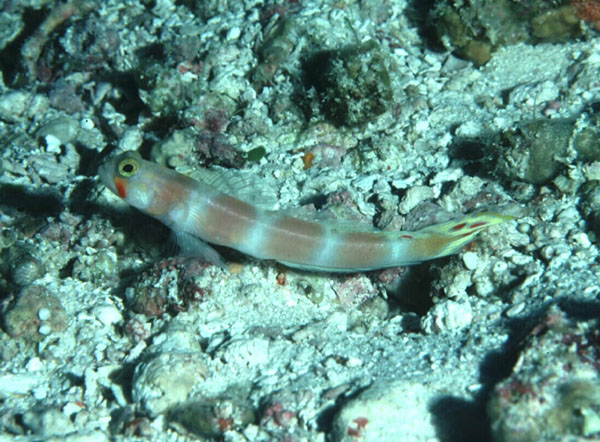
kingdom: Animalia
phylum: Chordata
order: Perciformes
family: Gobiidae
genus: Amblyeleotris
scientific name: Amblyeleotris aurora
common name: Pinkbar goby
